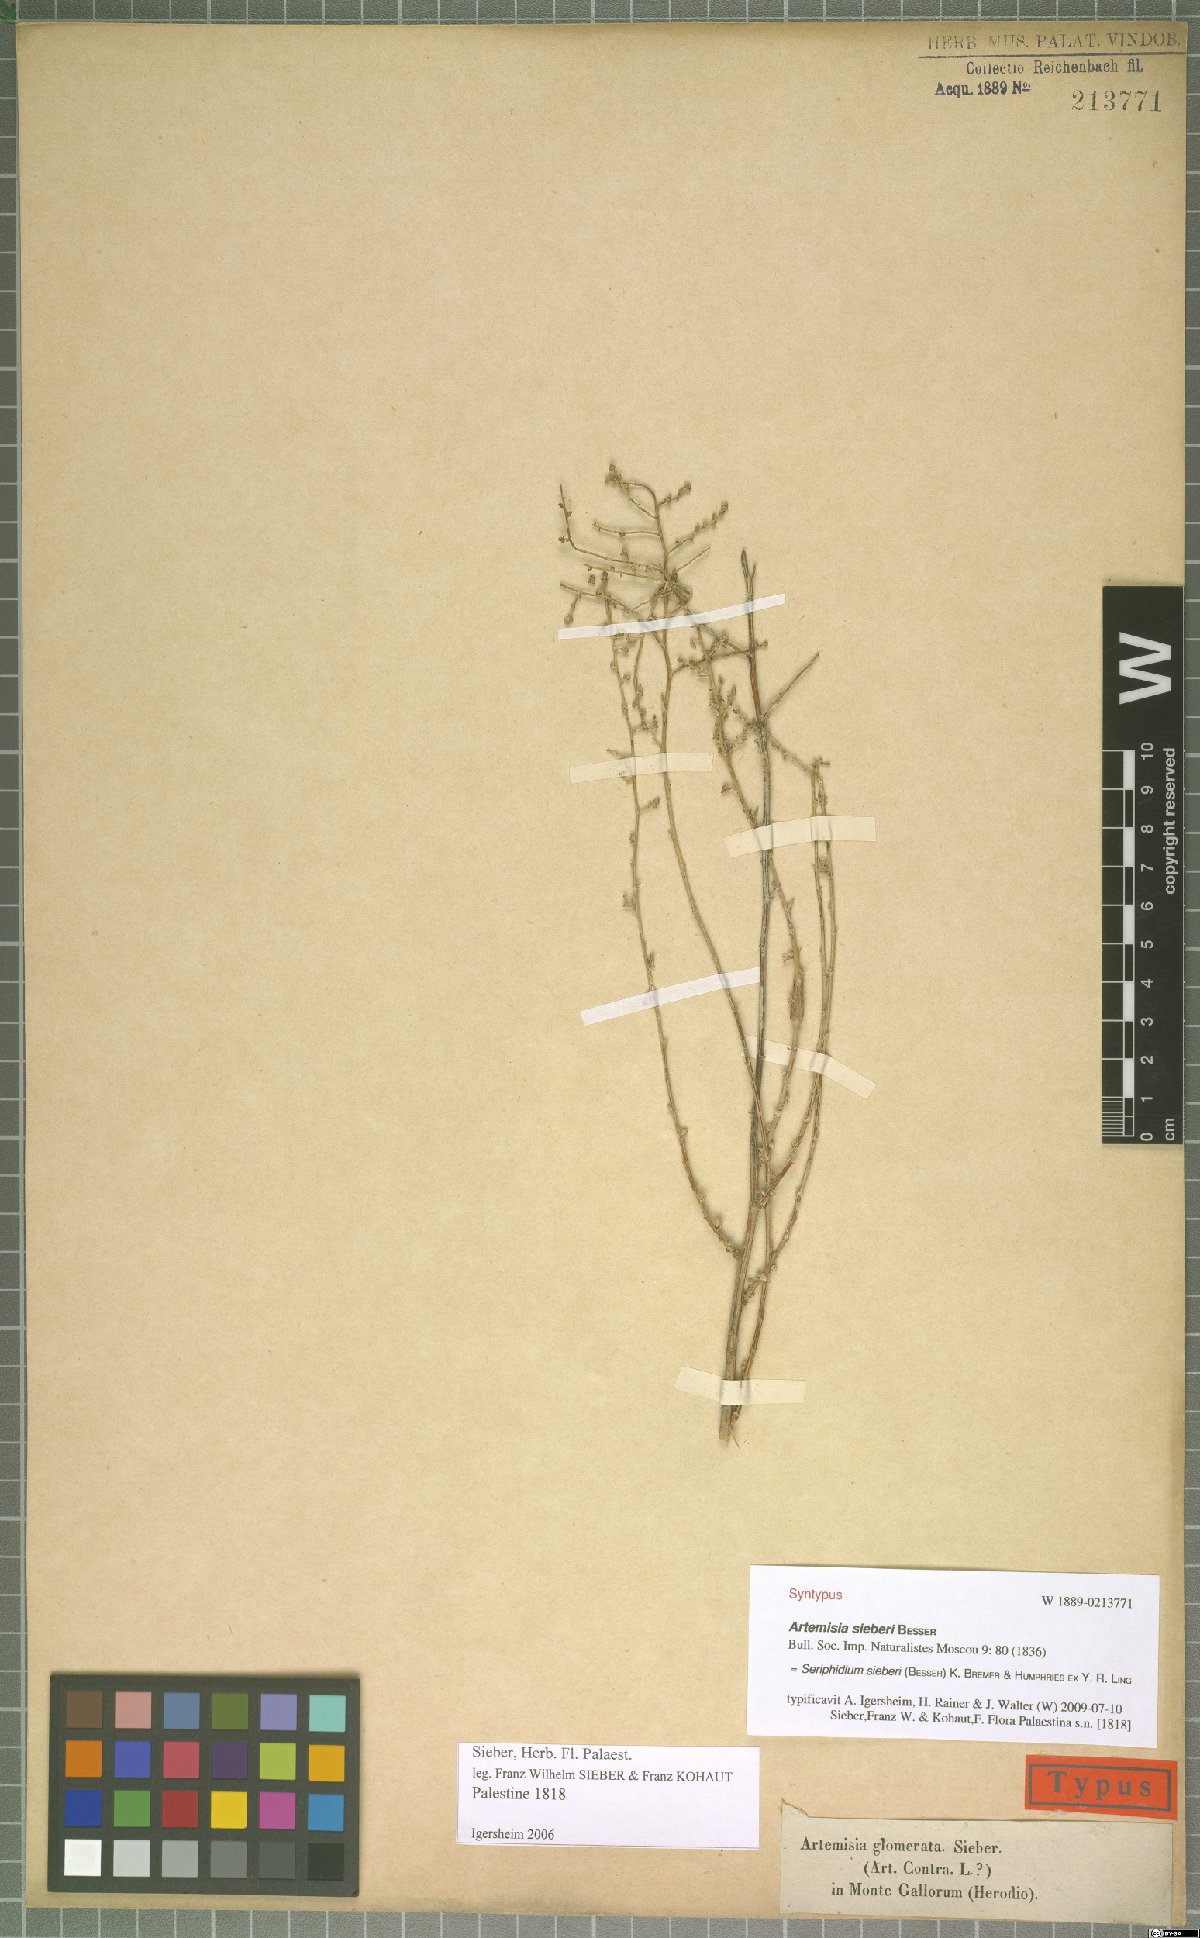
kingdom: Plantae
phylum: Tracheophyta
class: Magnoliopsida
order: Asterales
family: Asteraceae
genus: Artemisia
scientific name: Artemisia sieberi
